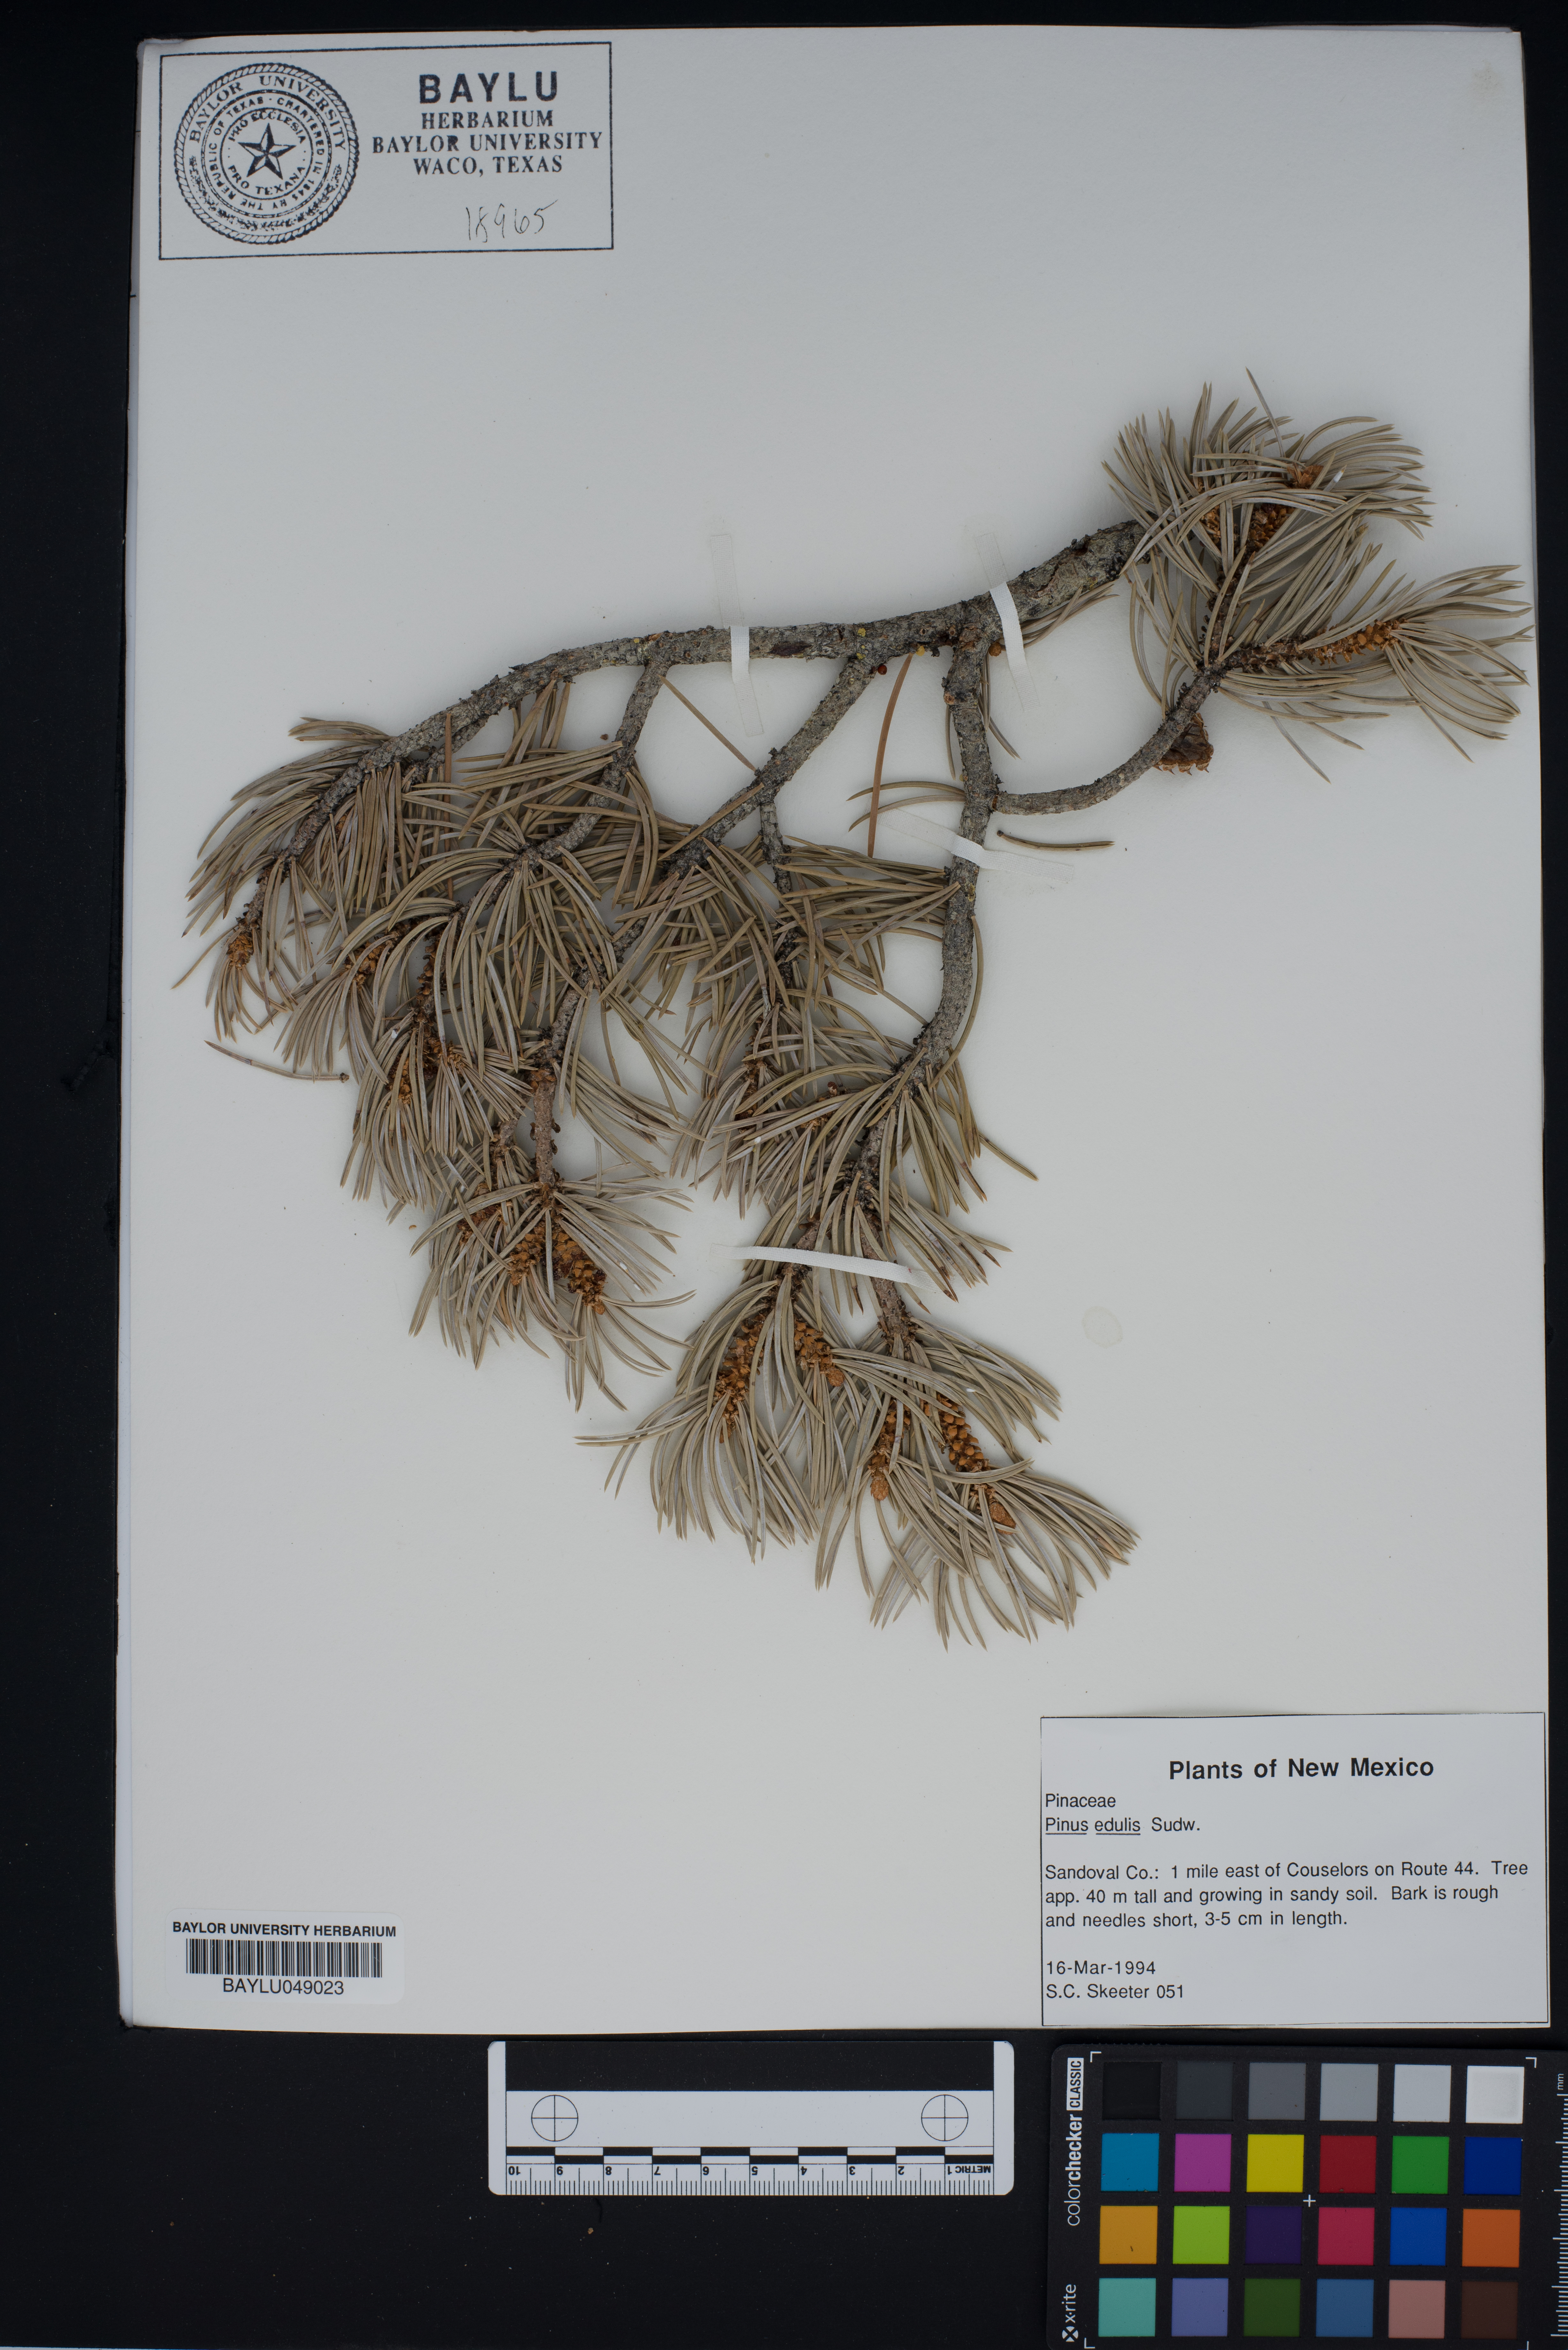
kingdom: Plantae
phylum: Tracheophyta
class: Pinopsida
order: Pinales
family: Pinaceae
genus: Pinus
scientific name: Pinus edulis
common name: Colorado pinyon
